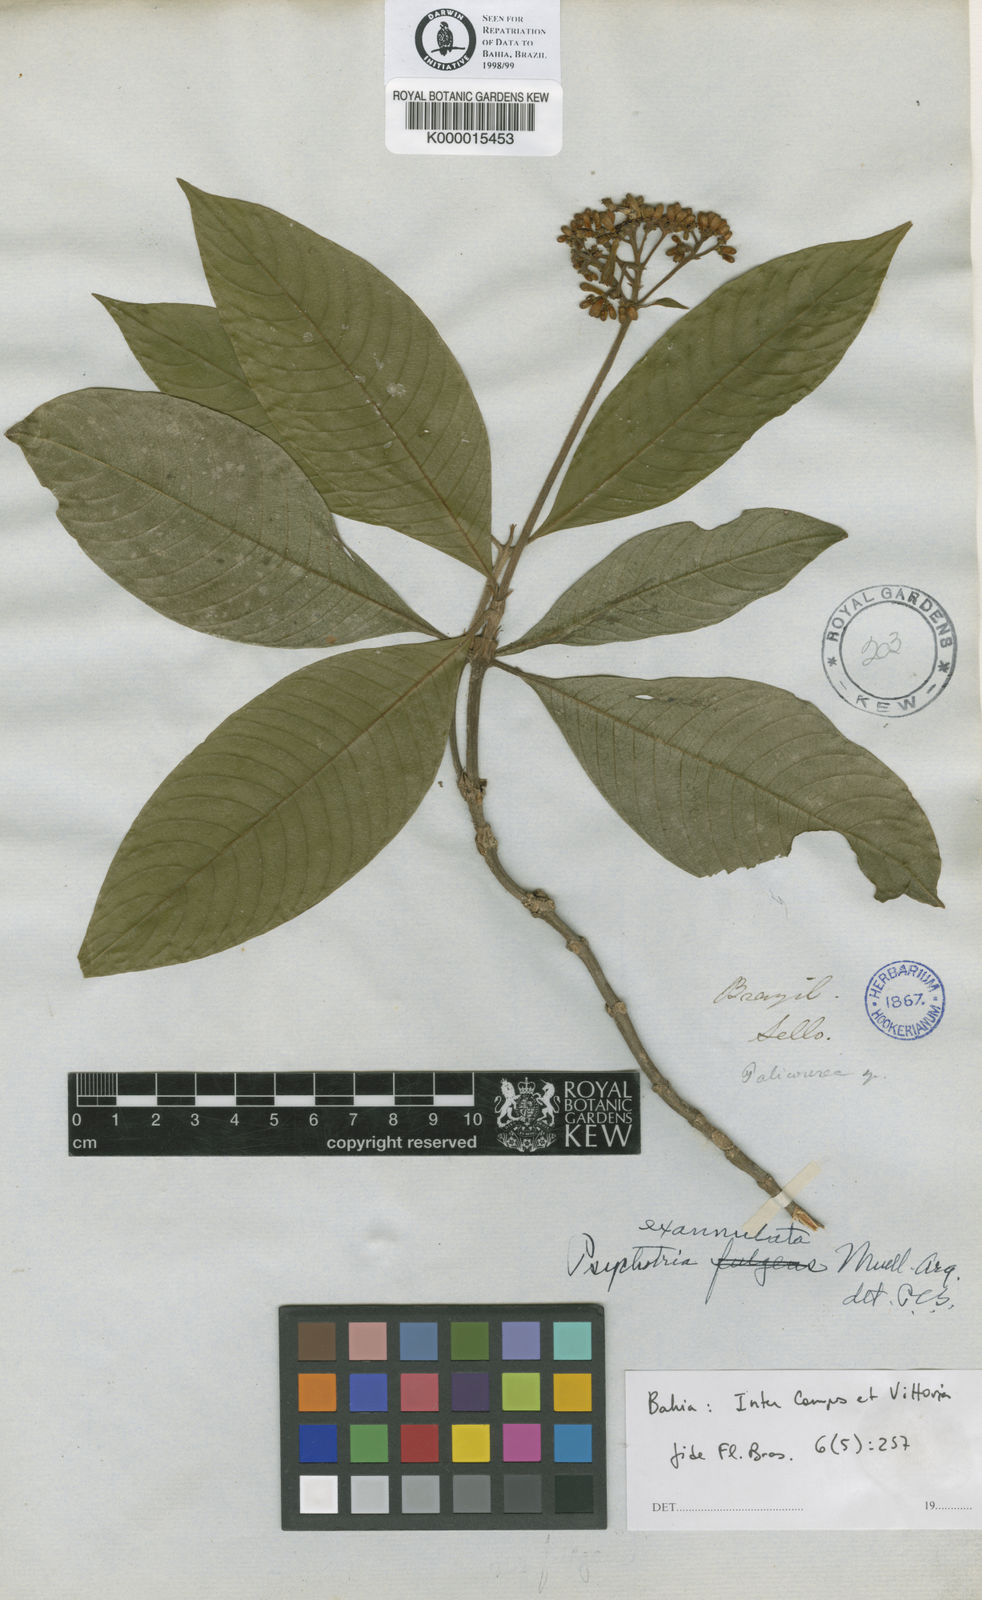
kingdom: Plantae
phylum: Tracheophyta
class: Magnoliopsida
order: Gentianales
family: Rubiaceae
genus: Psychotria
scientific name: Psychotria exannulata
